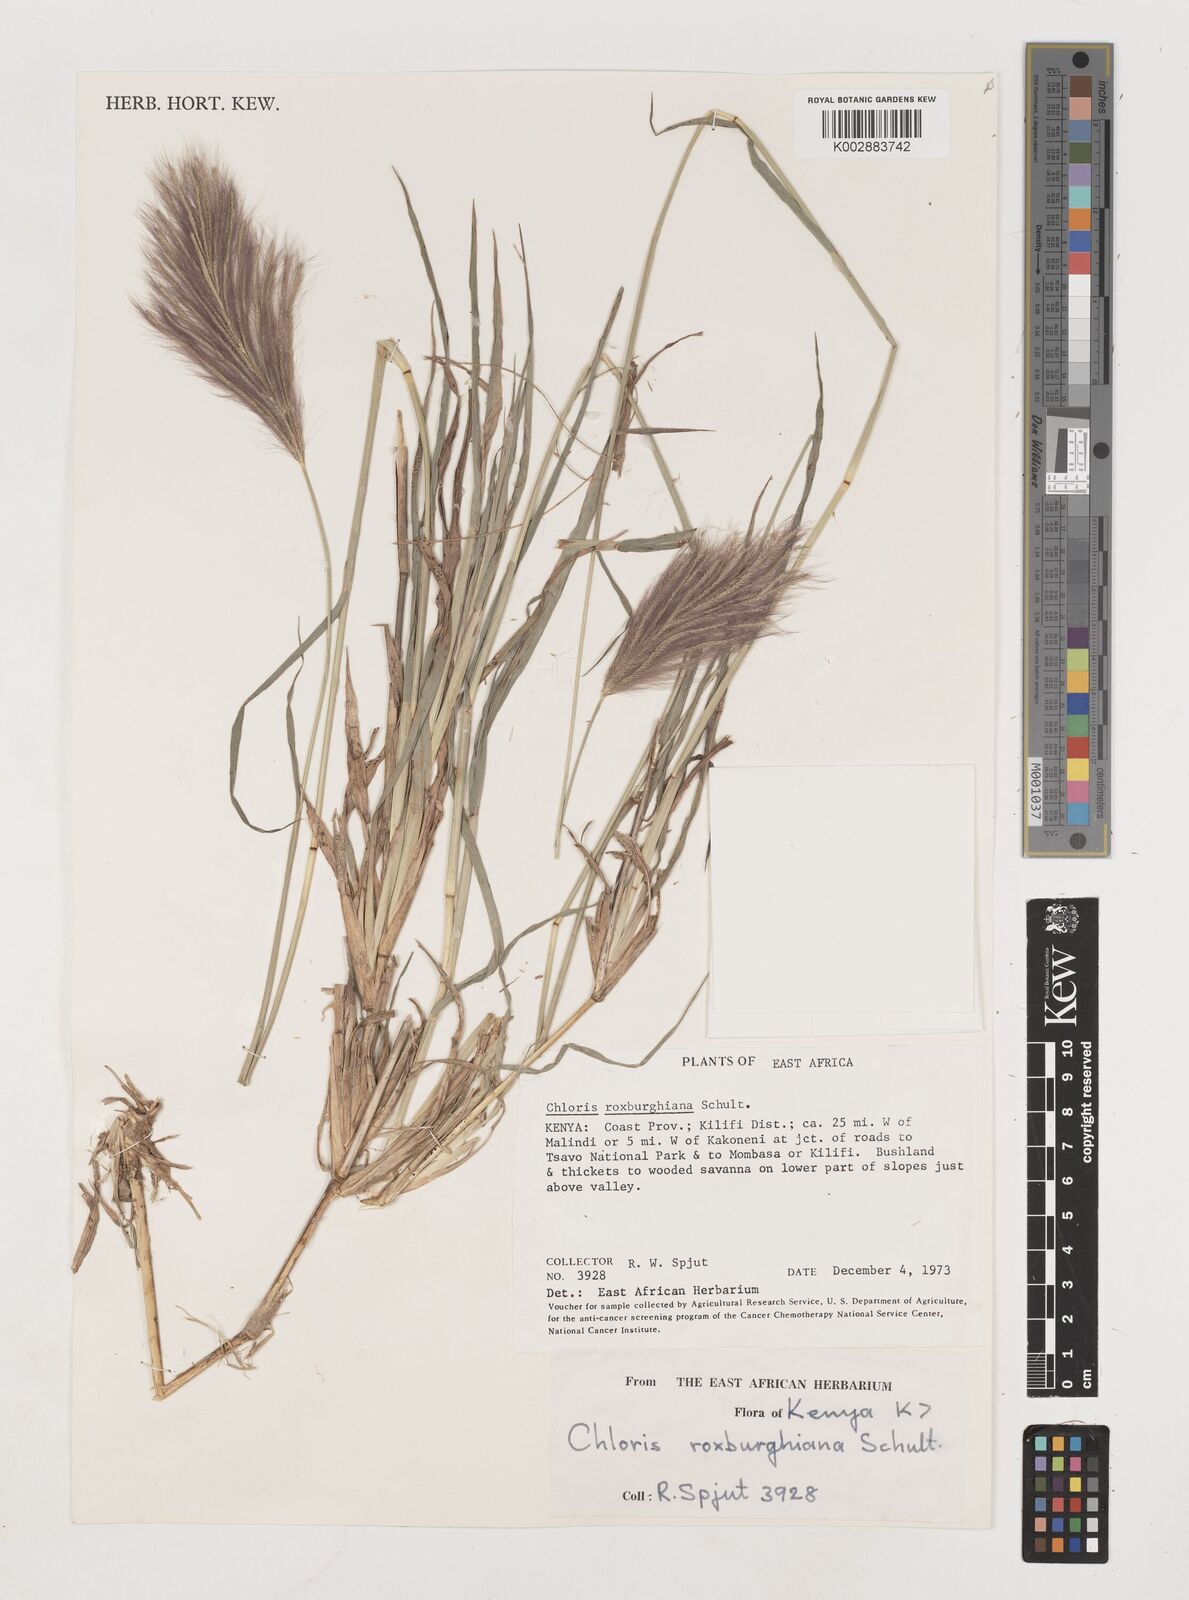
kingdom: Plantae
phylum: Tracheophyta
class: Liliopsida
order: Poales
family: Poaceae
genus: Tetrapogon
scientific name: Tetrapogon roxburghiana
